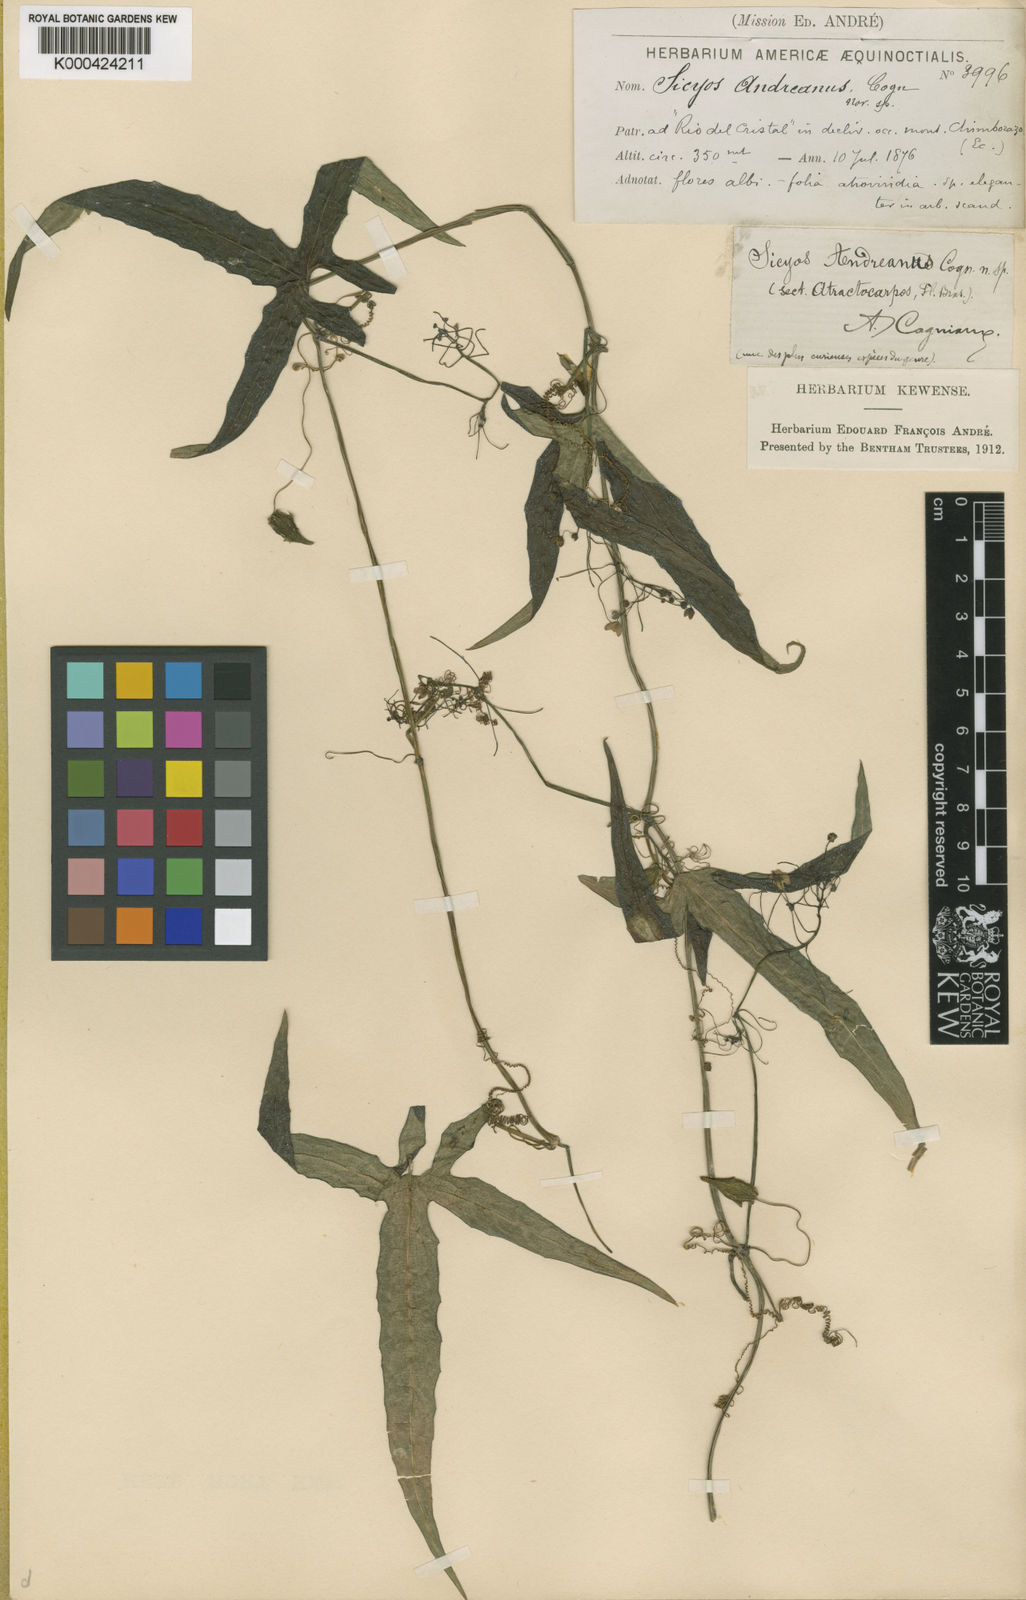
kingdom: Plantae
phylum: Tracheophyta
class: Magnoliopsida
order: Cucurbitales
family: Cucurbitaceae
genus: Sicyos
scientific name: Sicyos andreanus
